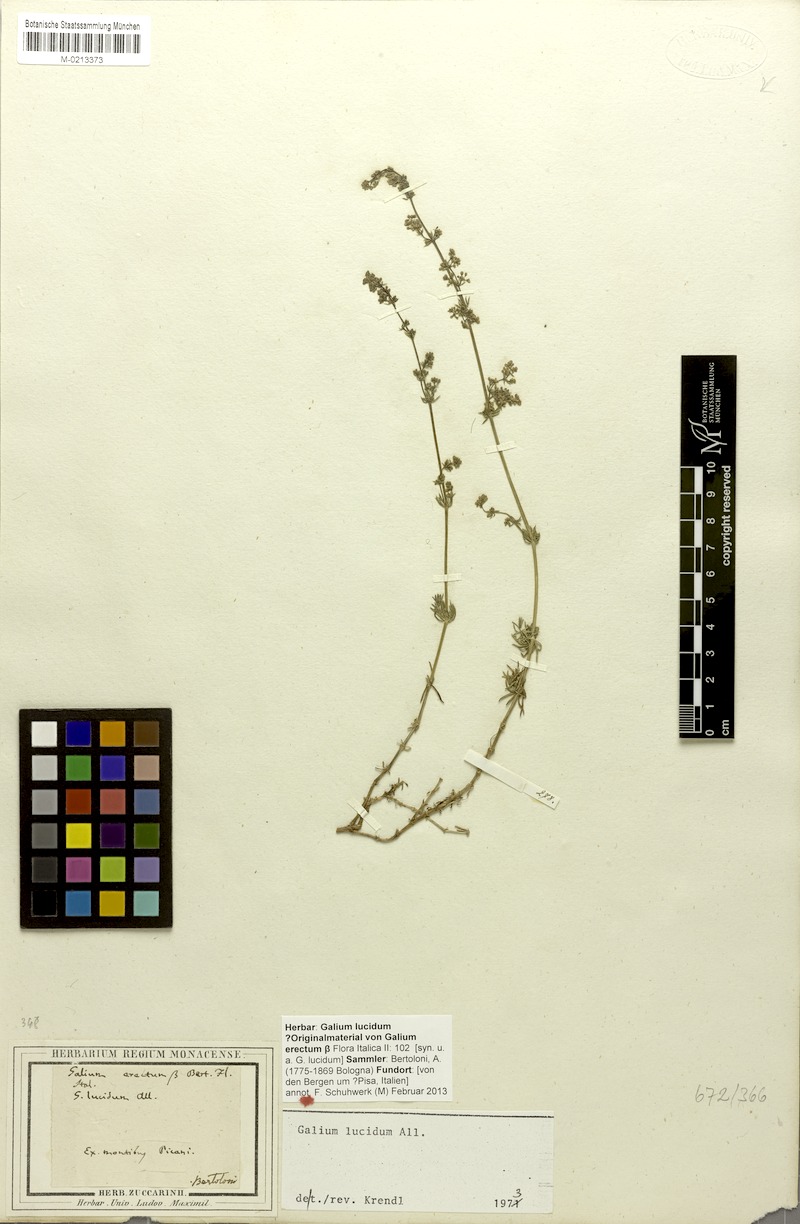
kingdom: Plantae
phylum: Tracheophyta
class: Magnoliopsida
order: Gentianales
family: Rubiaceae
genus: Galium
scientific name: Galium lucidum
